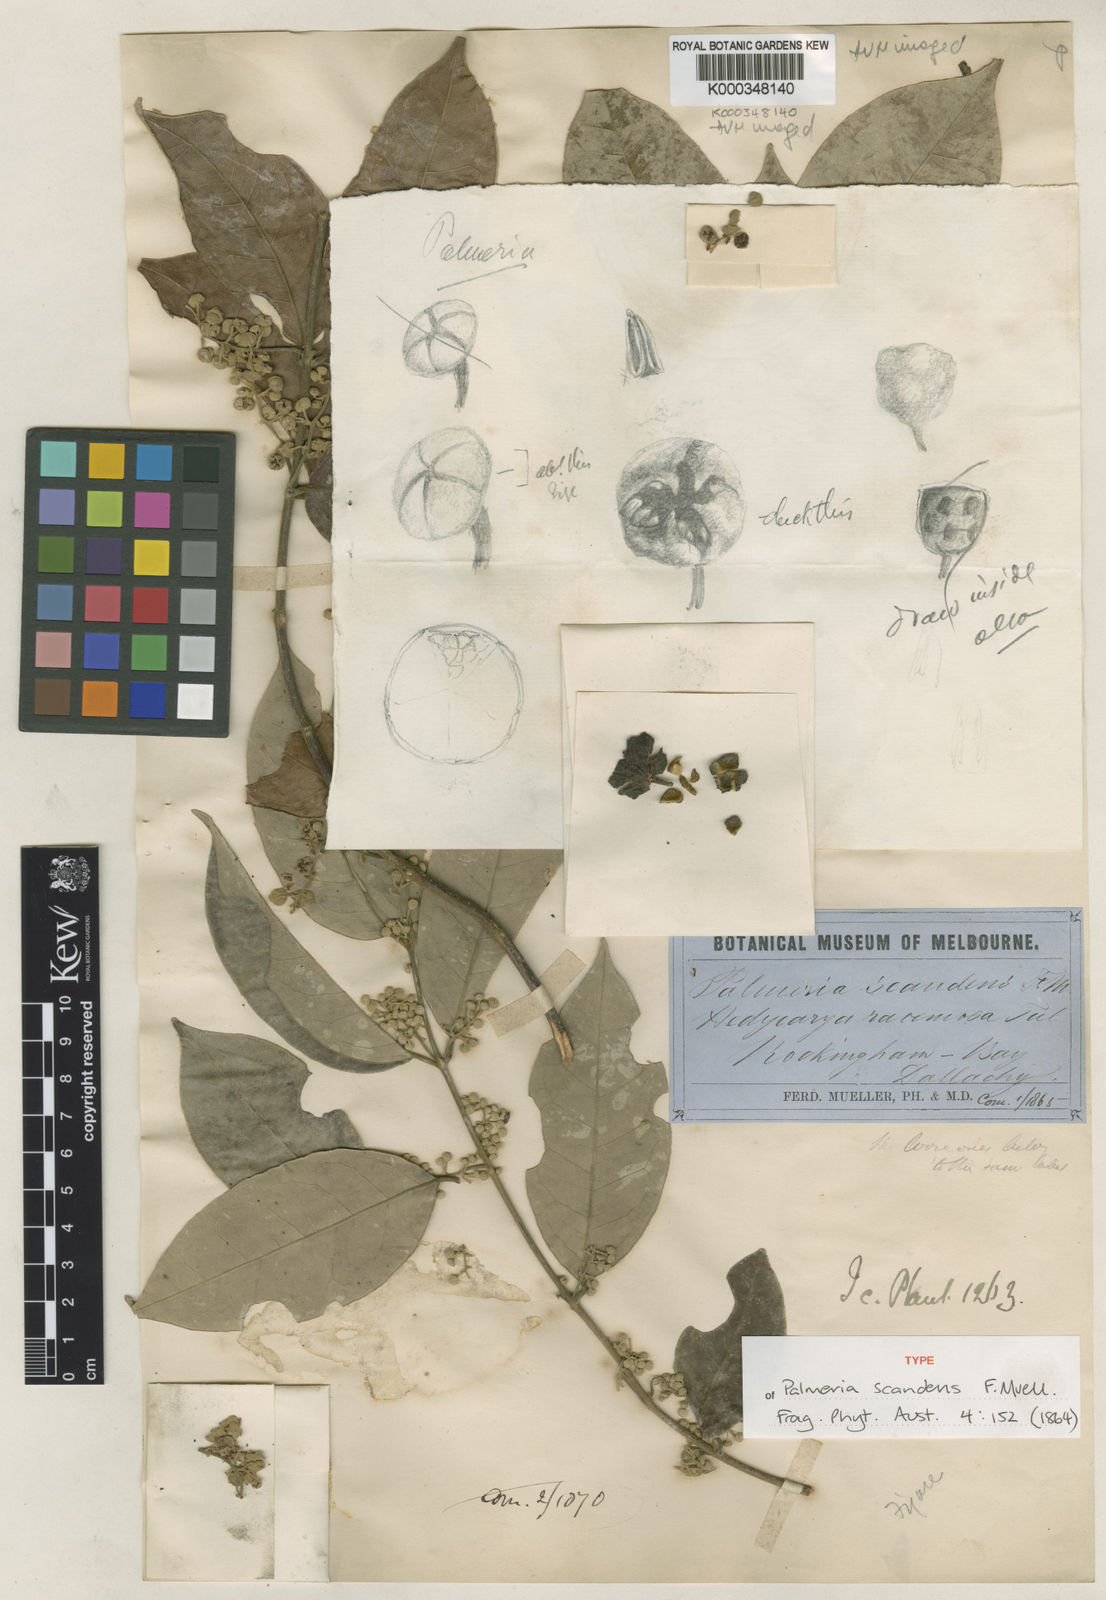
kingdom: Plantae
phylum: Tracheophyta
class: Magnoliopsida
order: Laurales
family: Monimiaceae
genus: Palmeria
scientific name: Palmeria scandens
